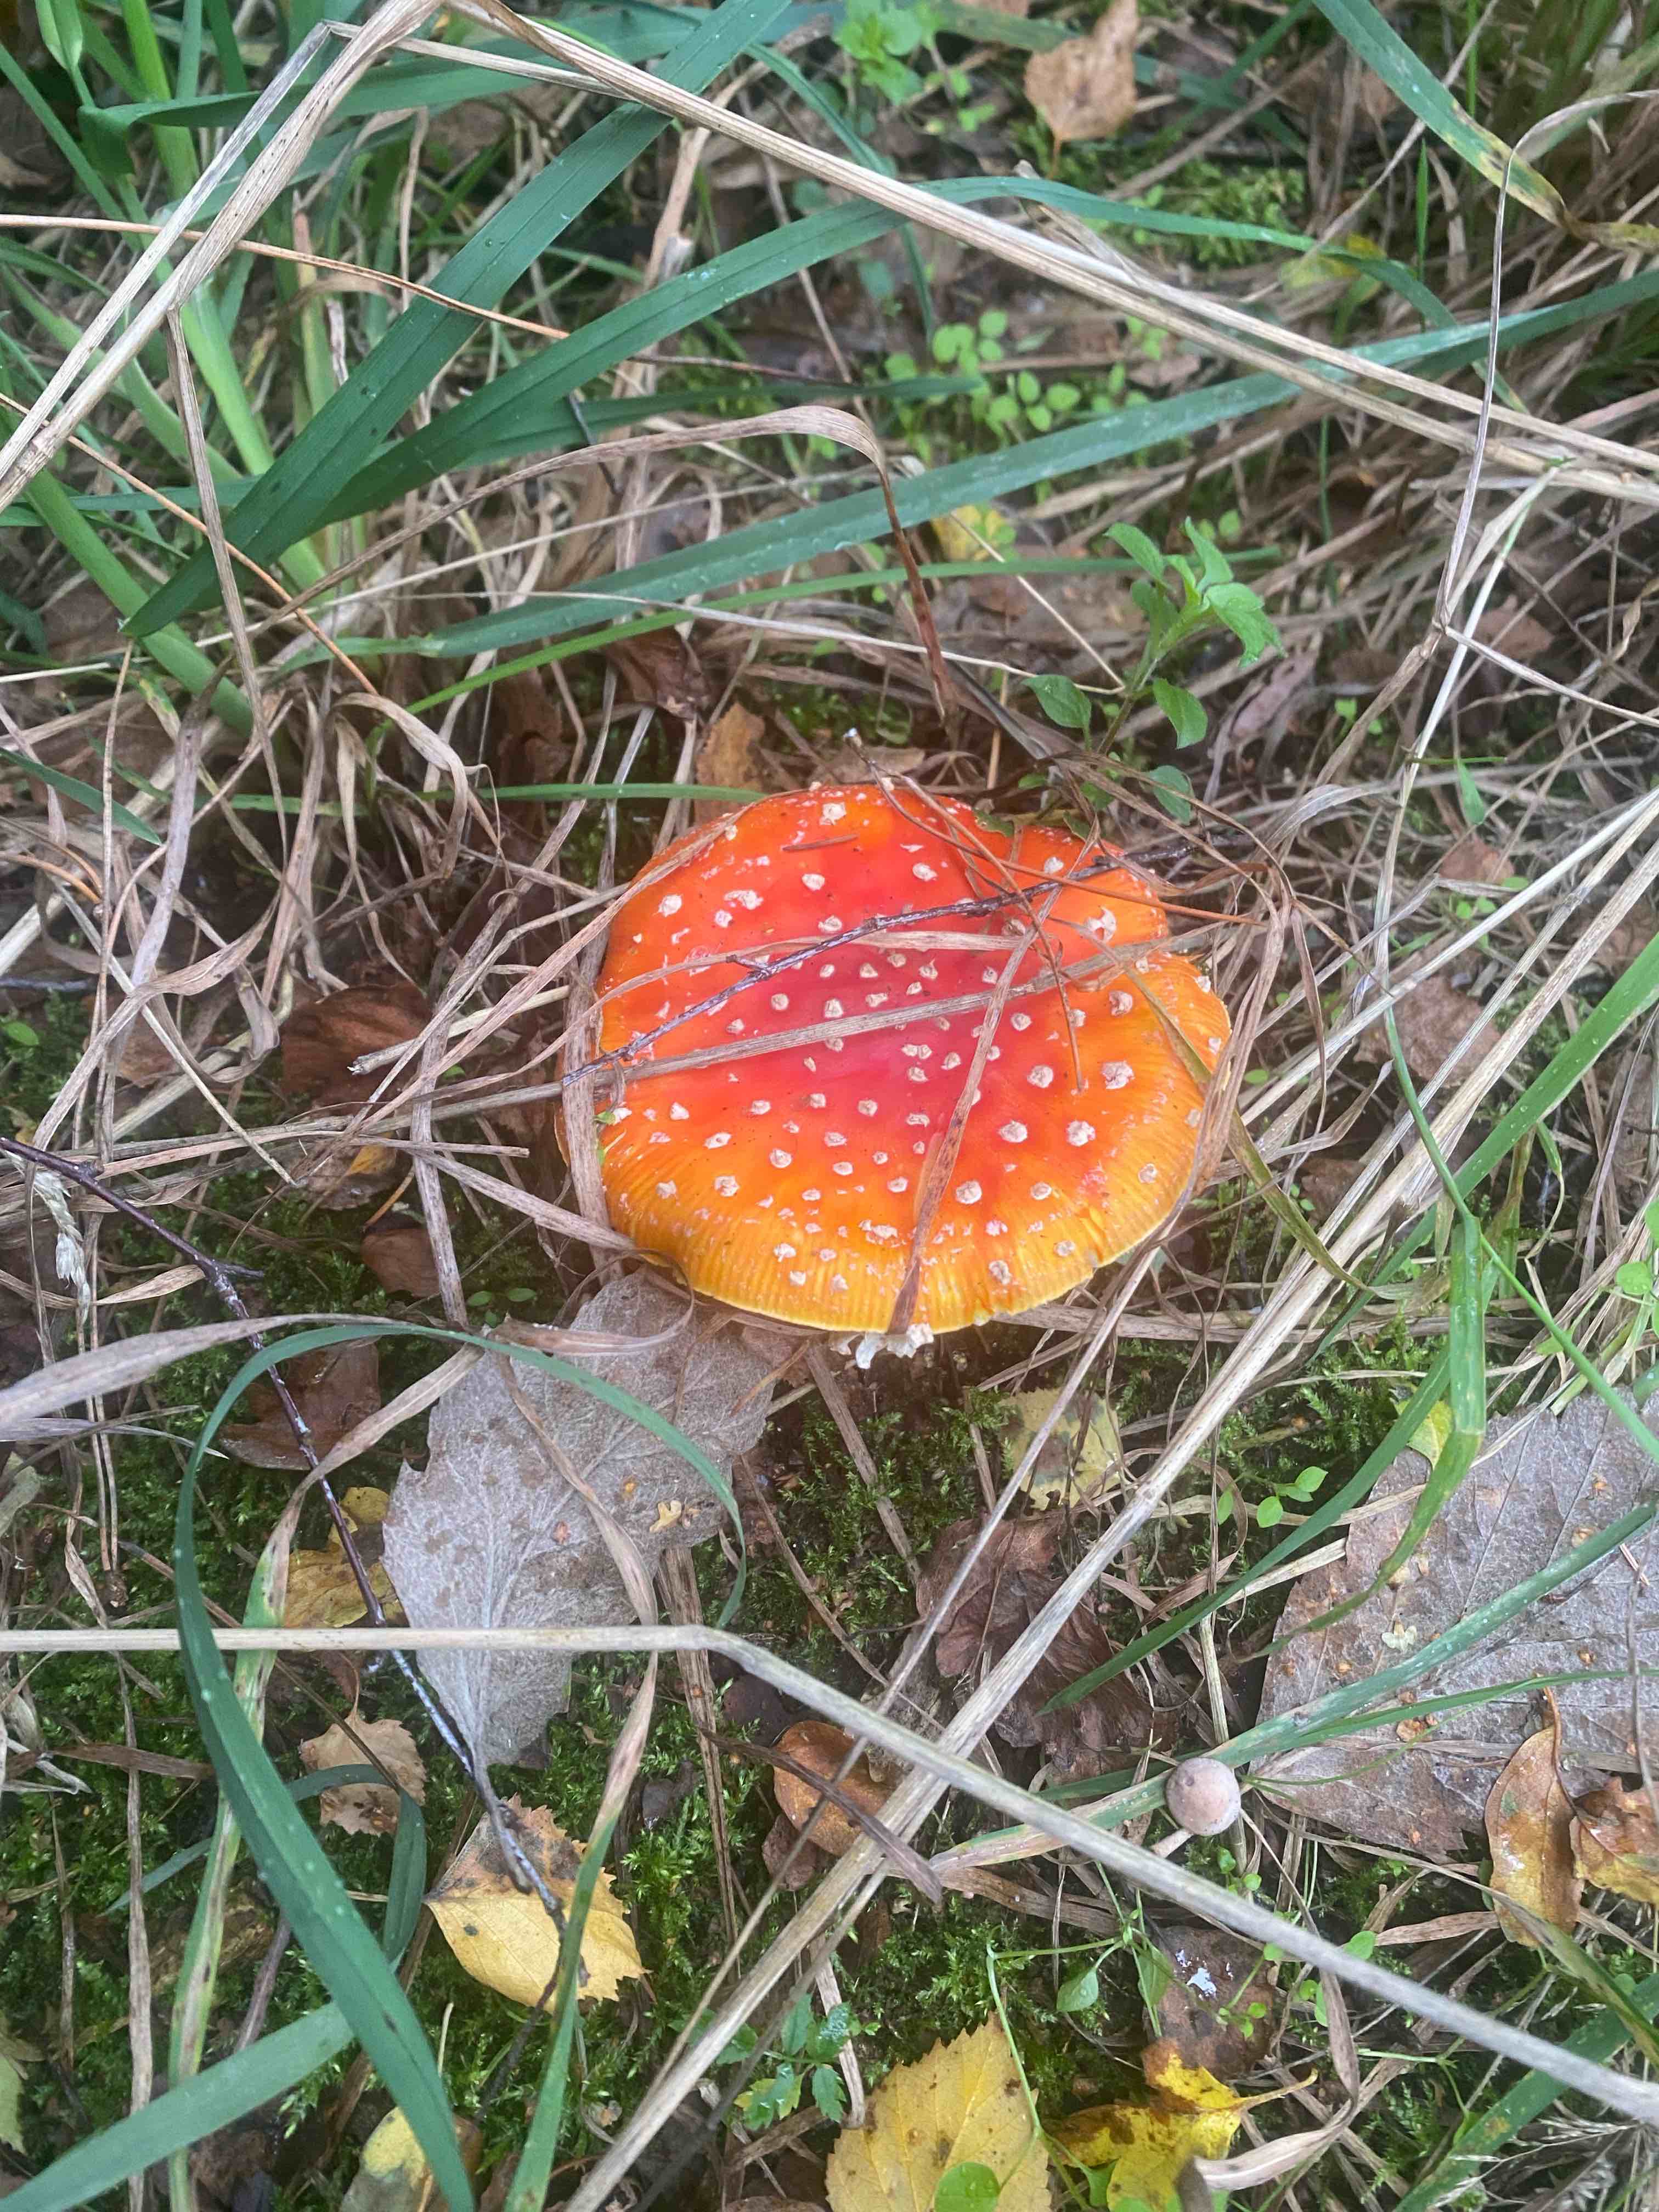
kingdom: Fungi
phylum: Basidiomycota
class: Agaricomycetes
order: Agaricales
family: Amanitaceae
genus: Amanita
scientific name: Amanita muscaria
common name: rød fluesvamp
